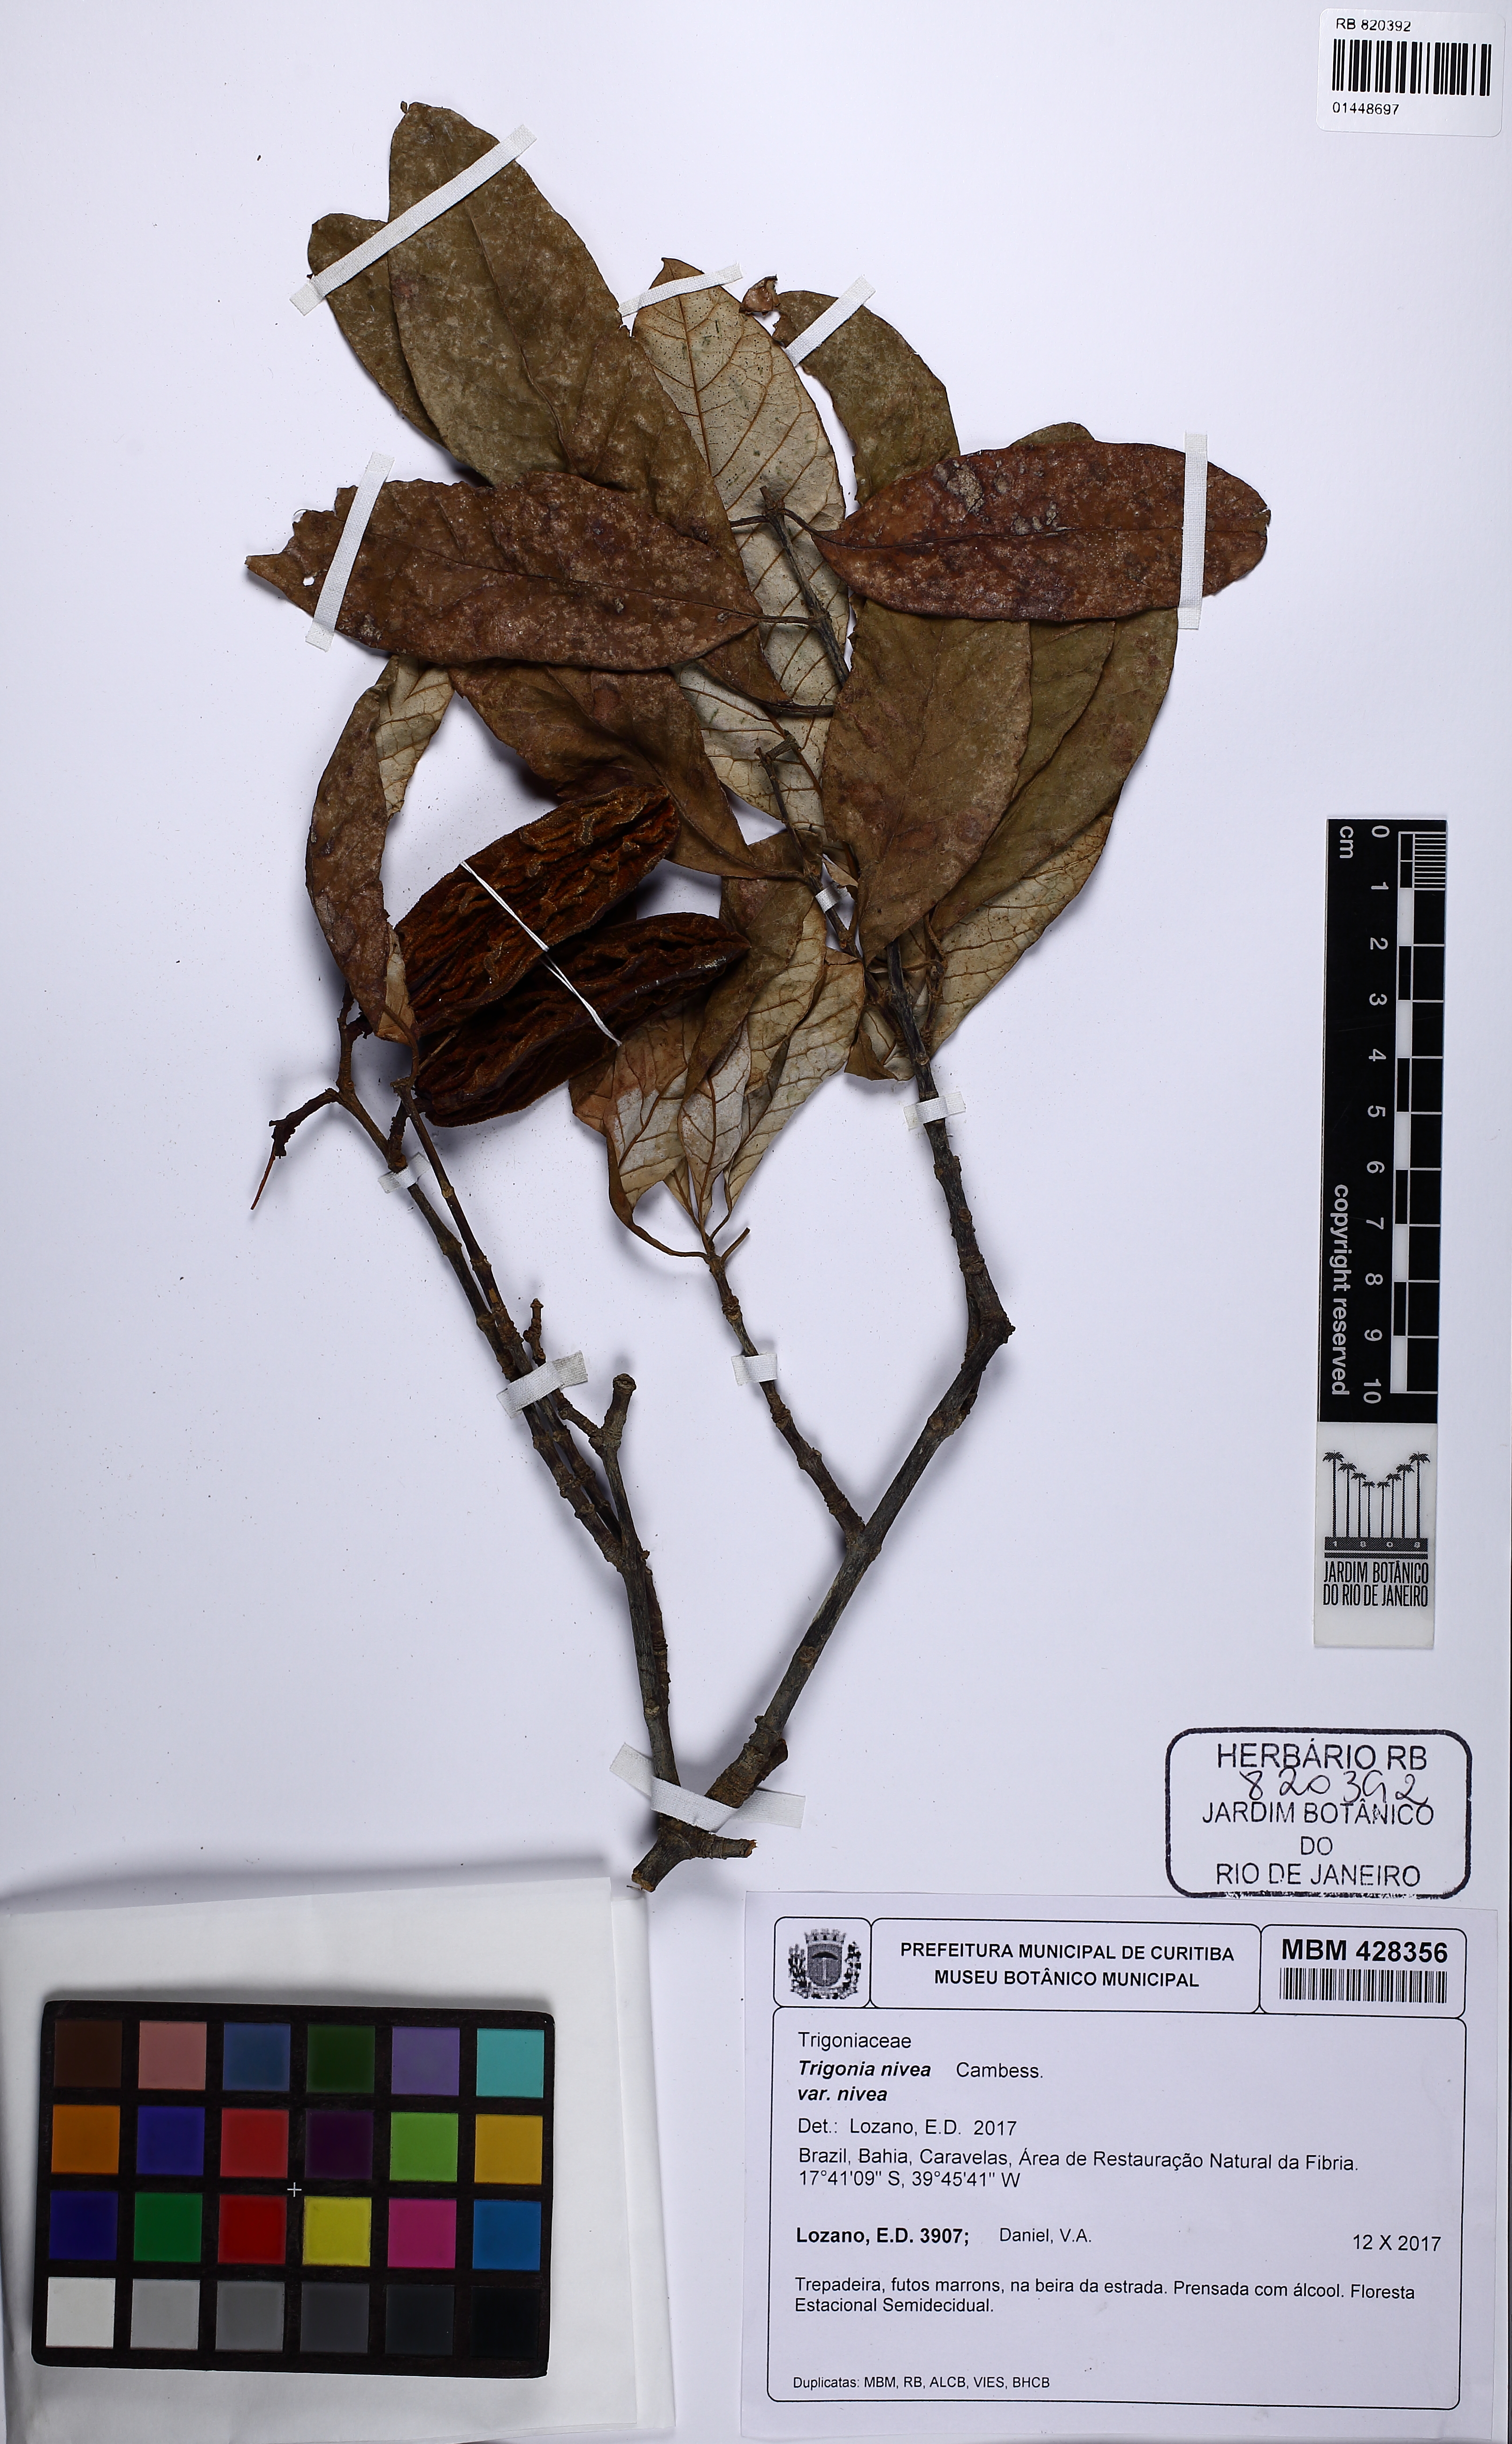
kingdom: Plantae
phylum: Tracheophyta
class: Magnoliopsida
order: Malpighiales
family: Trigoniaceae
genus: Trigonia
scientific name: Trigonia nivea
